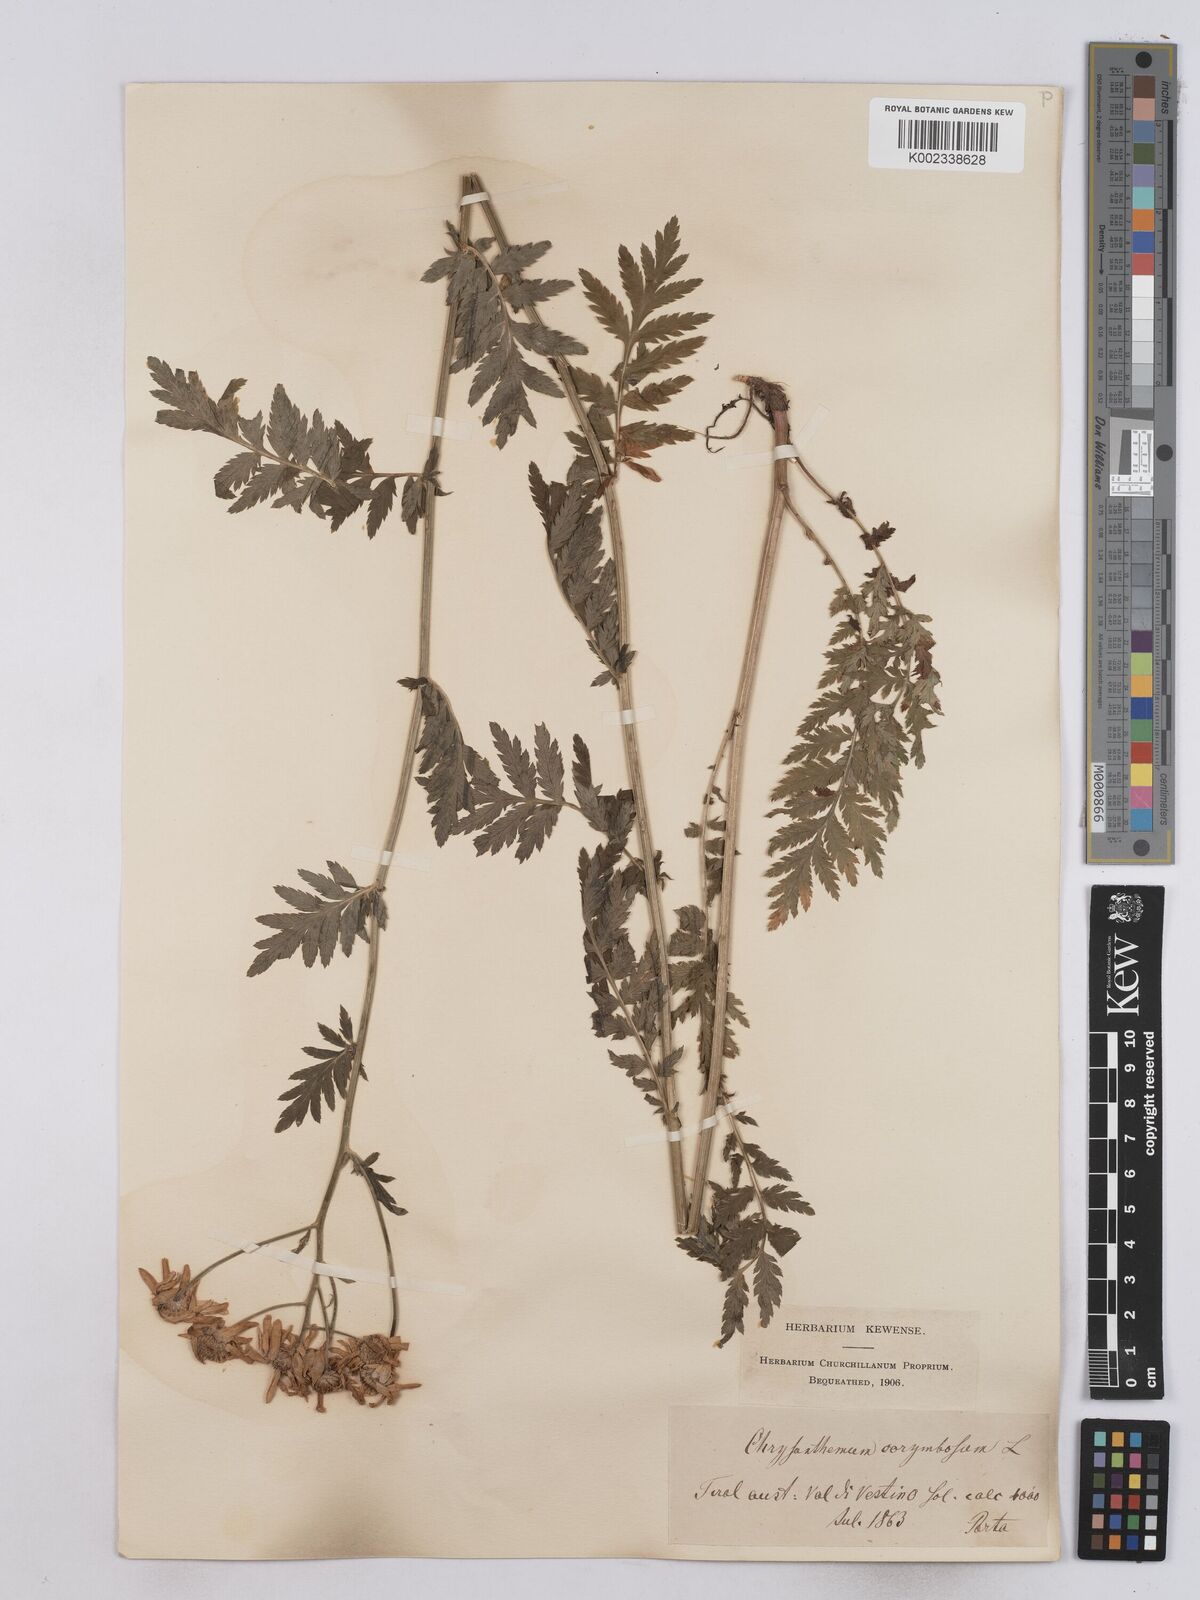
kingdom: Plantae
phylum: Tracheophyta
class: Magnoliopsida
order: Asterales
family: Asteraceae
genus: Tanacetum
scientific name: Tanacetum corymbosum
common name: Scentless feverfew
